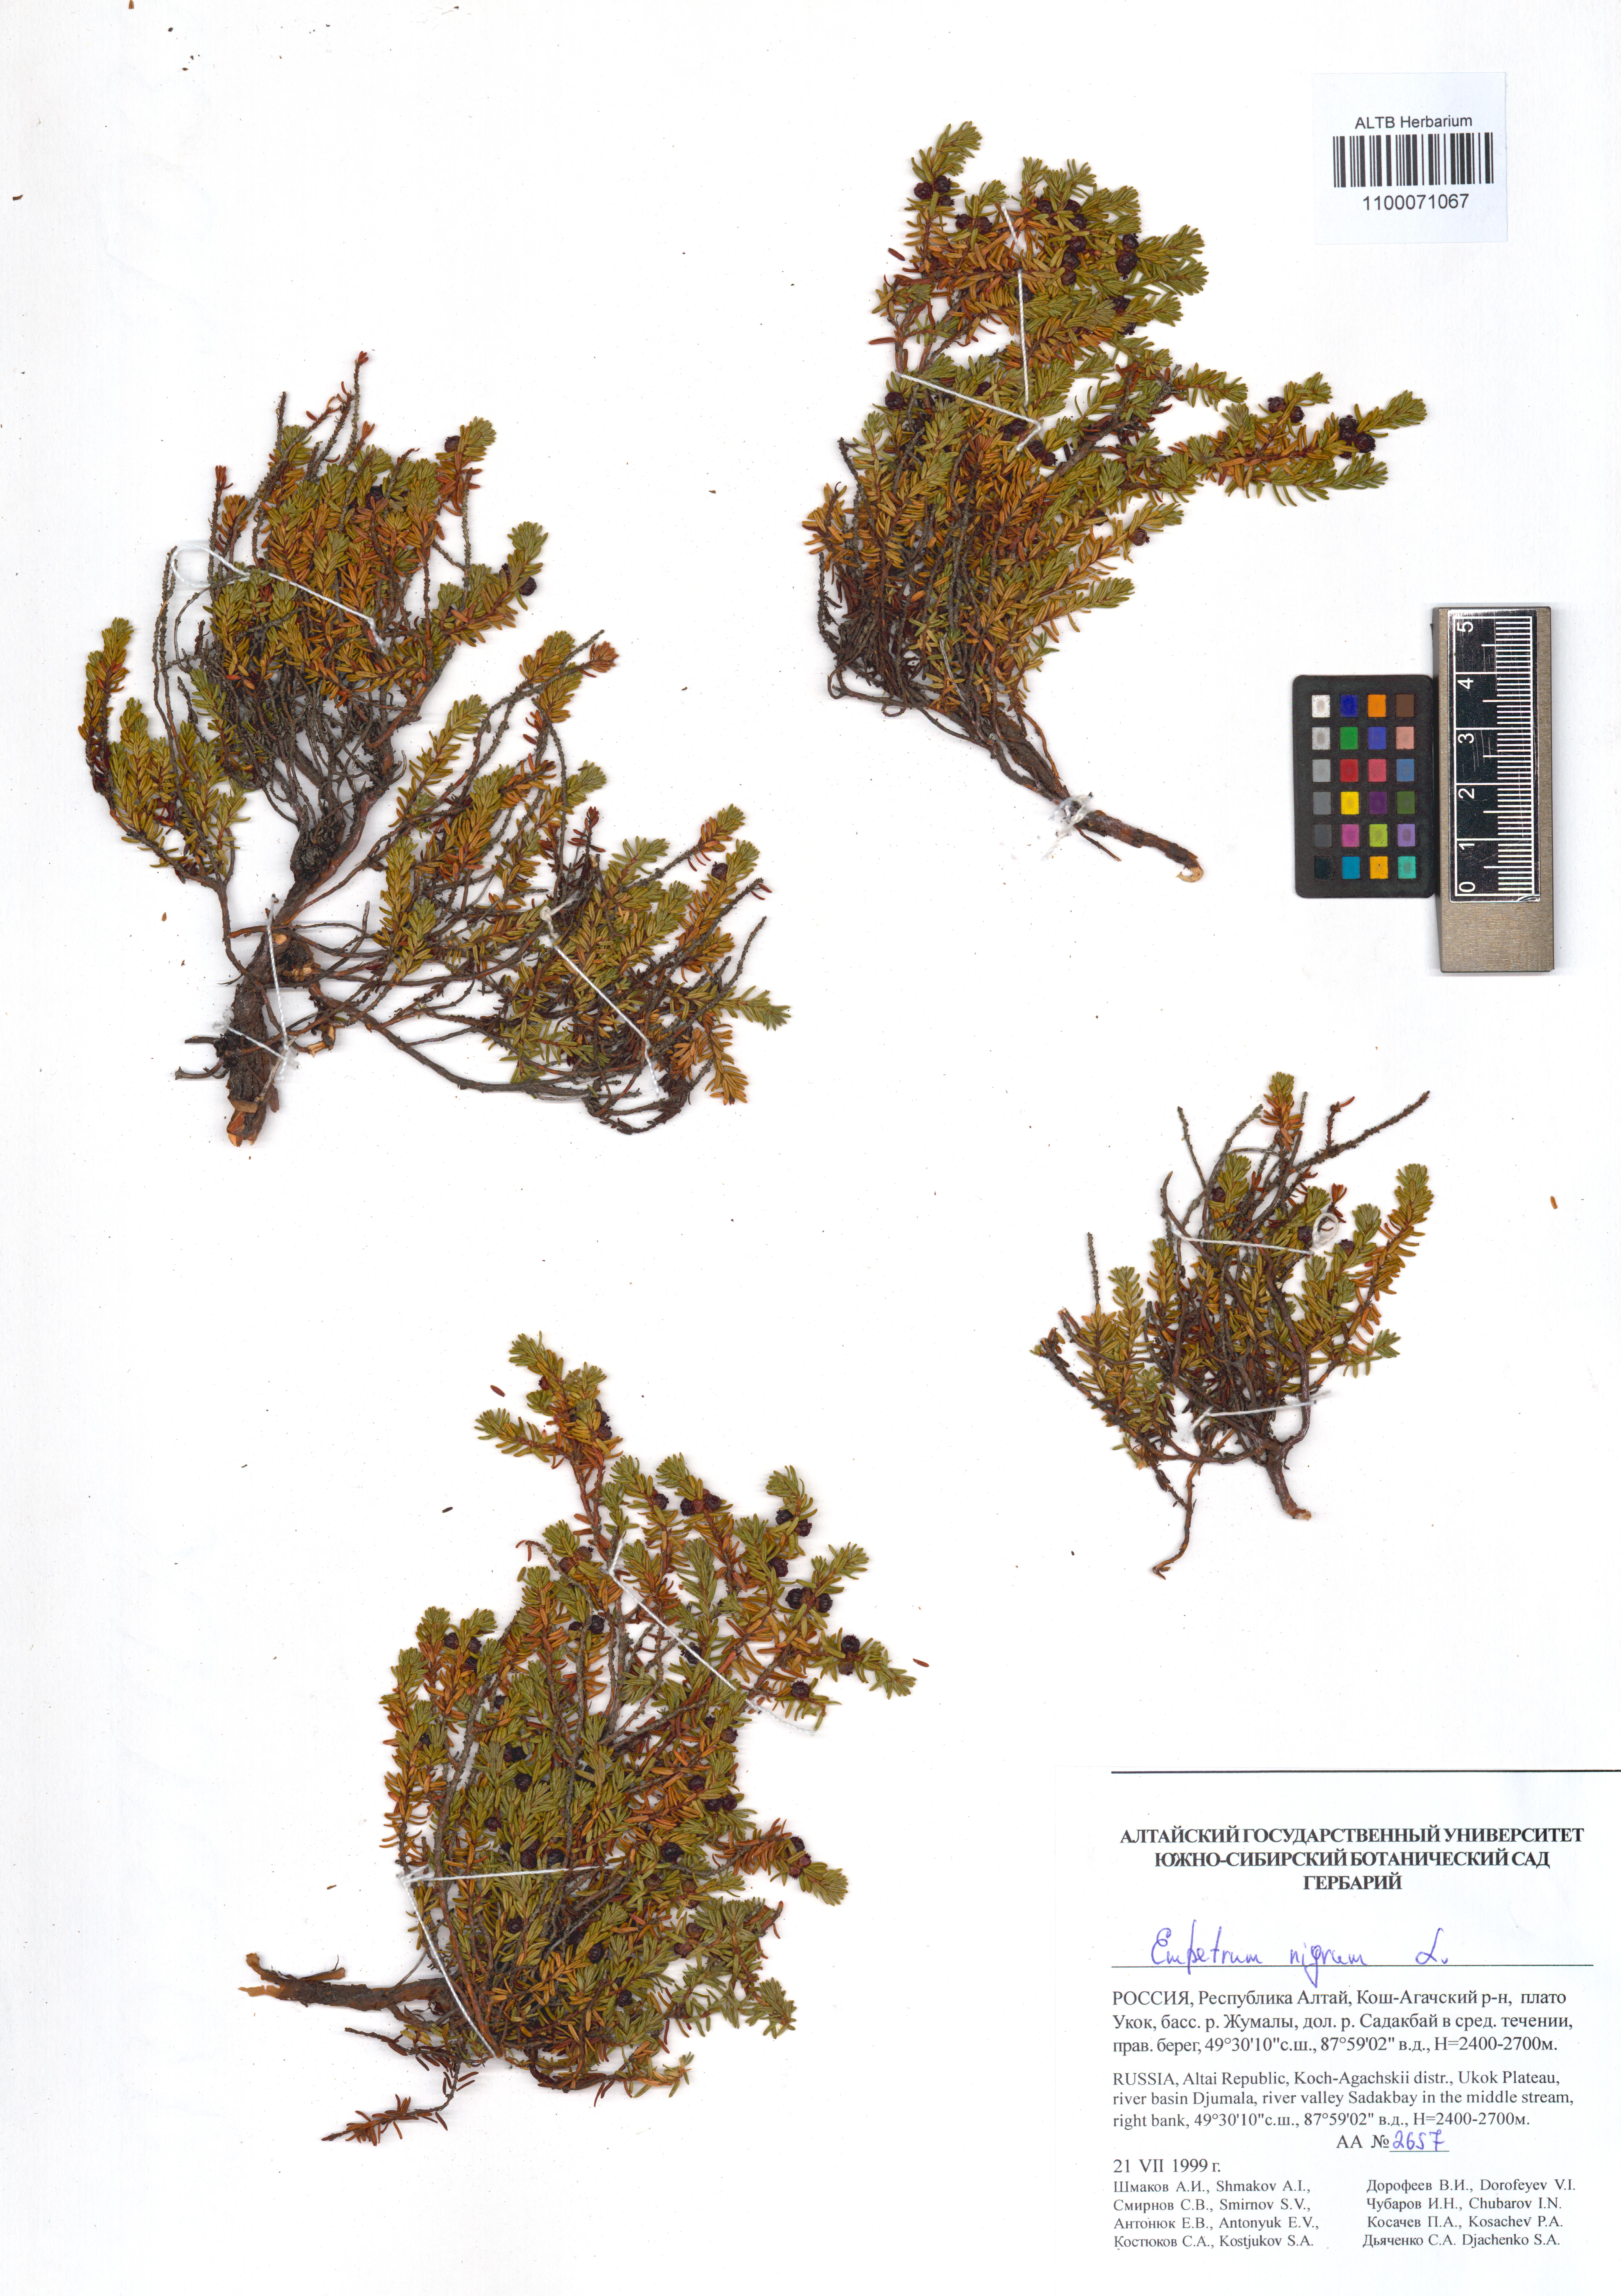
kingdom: Plantae
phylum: Tracheophyta
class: Magnoliopsida
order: Ericales
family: Ericaceae
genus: Empetrum
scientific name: Empetrum nigrum
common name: Black crowberry
